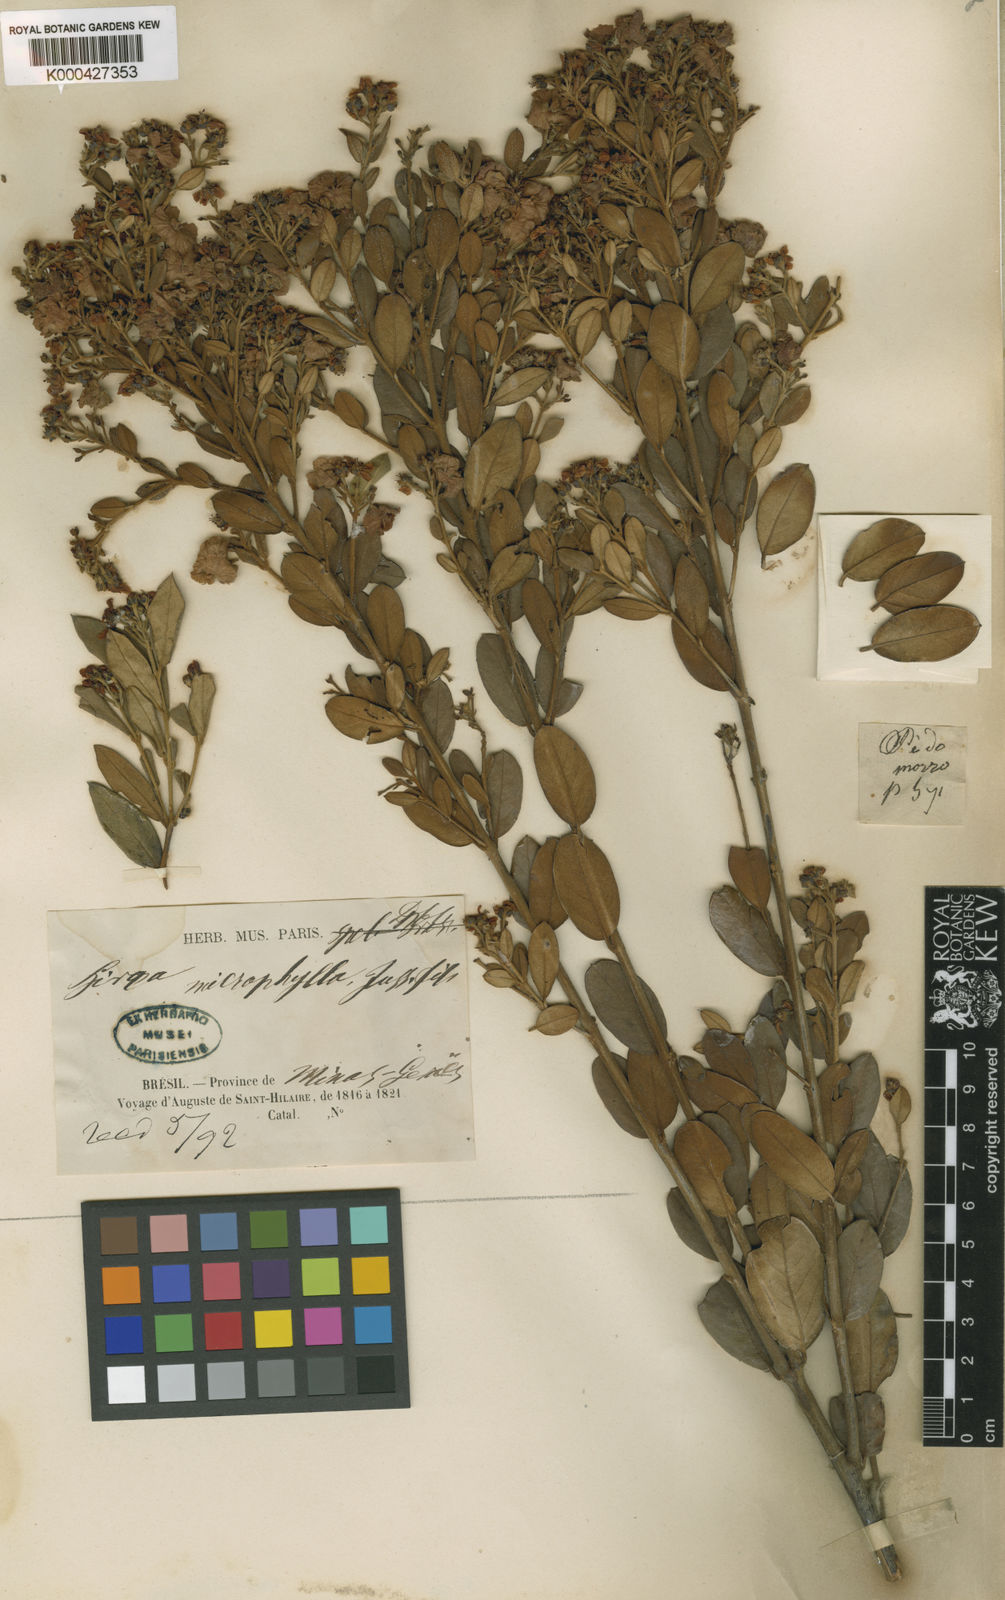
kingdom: Plantae
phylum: Tracheophyta
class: Magnoliopsida
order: Malpighiales
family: Malpighiaceae
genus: Glicophyllum
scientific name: Glicophyllum microphyllum
